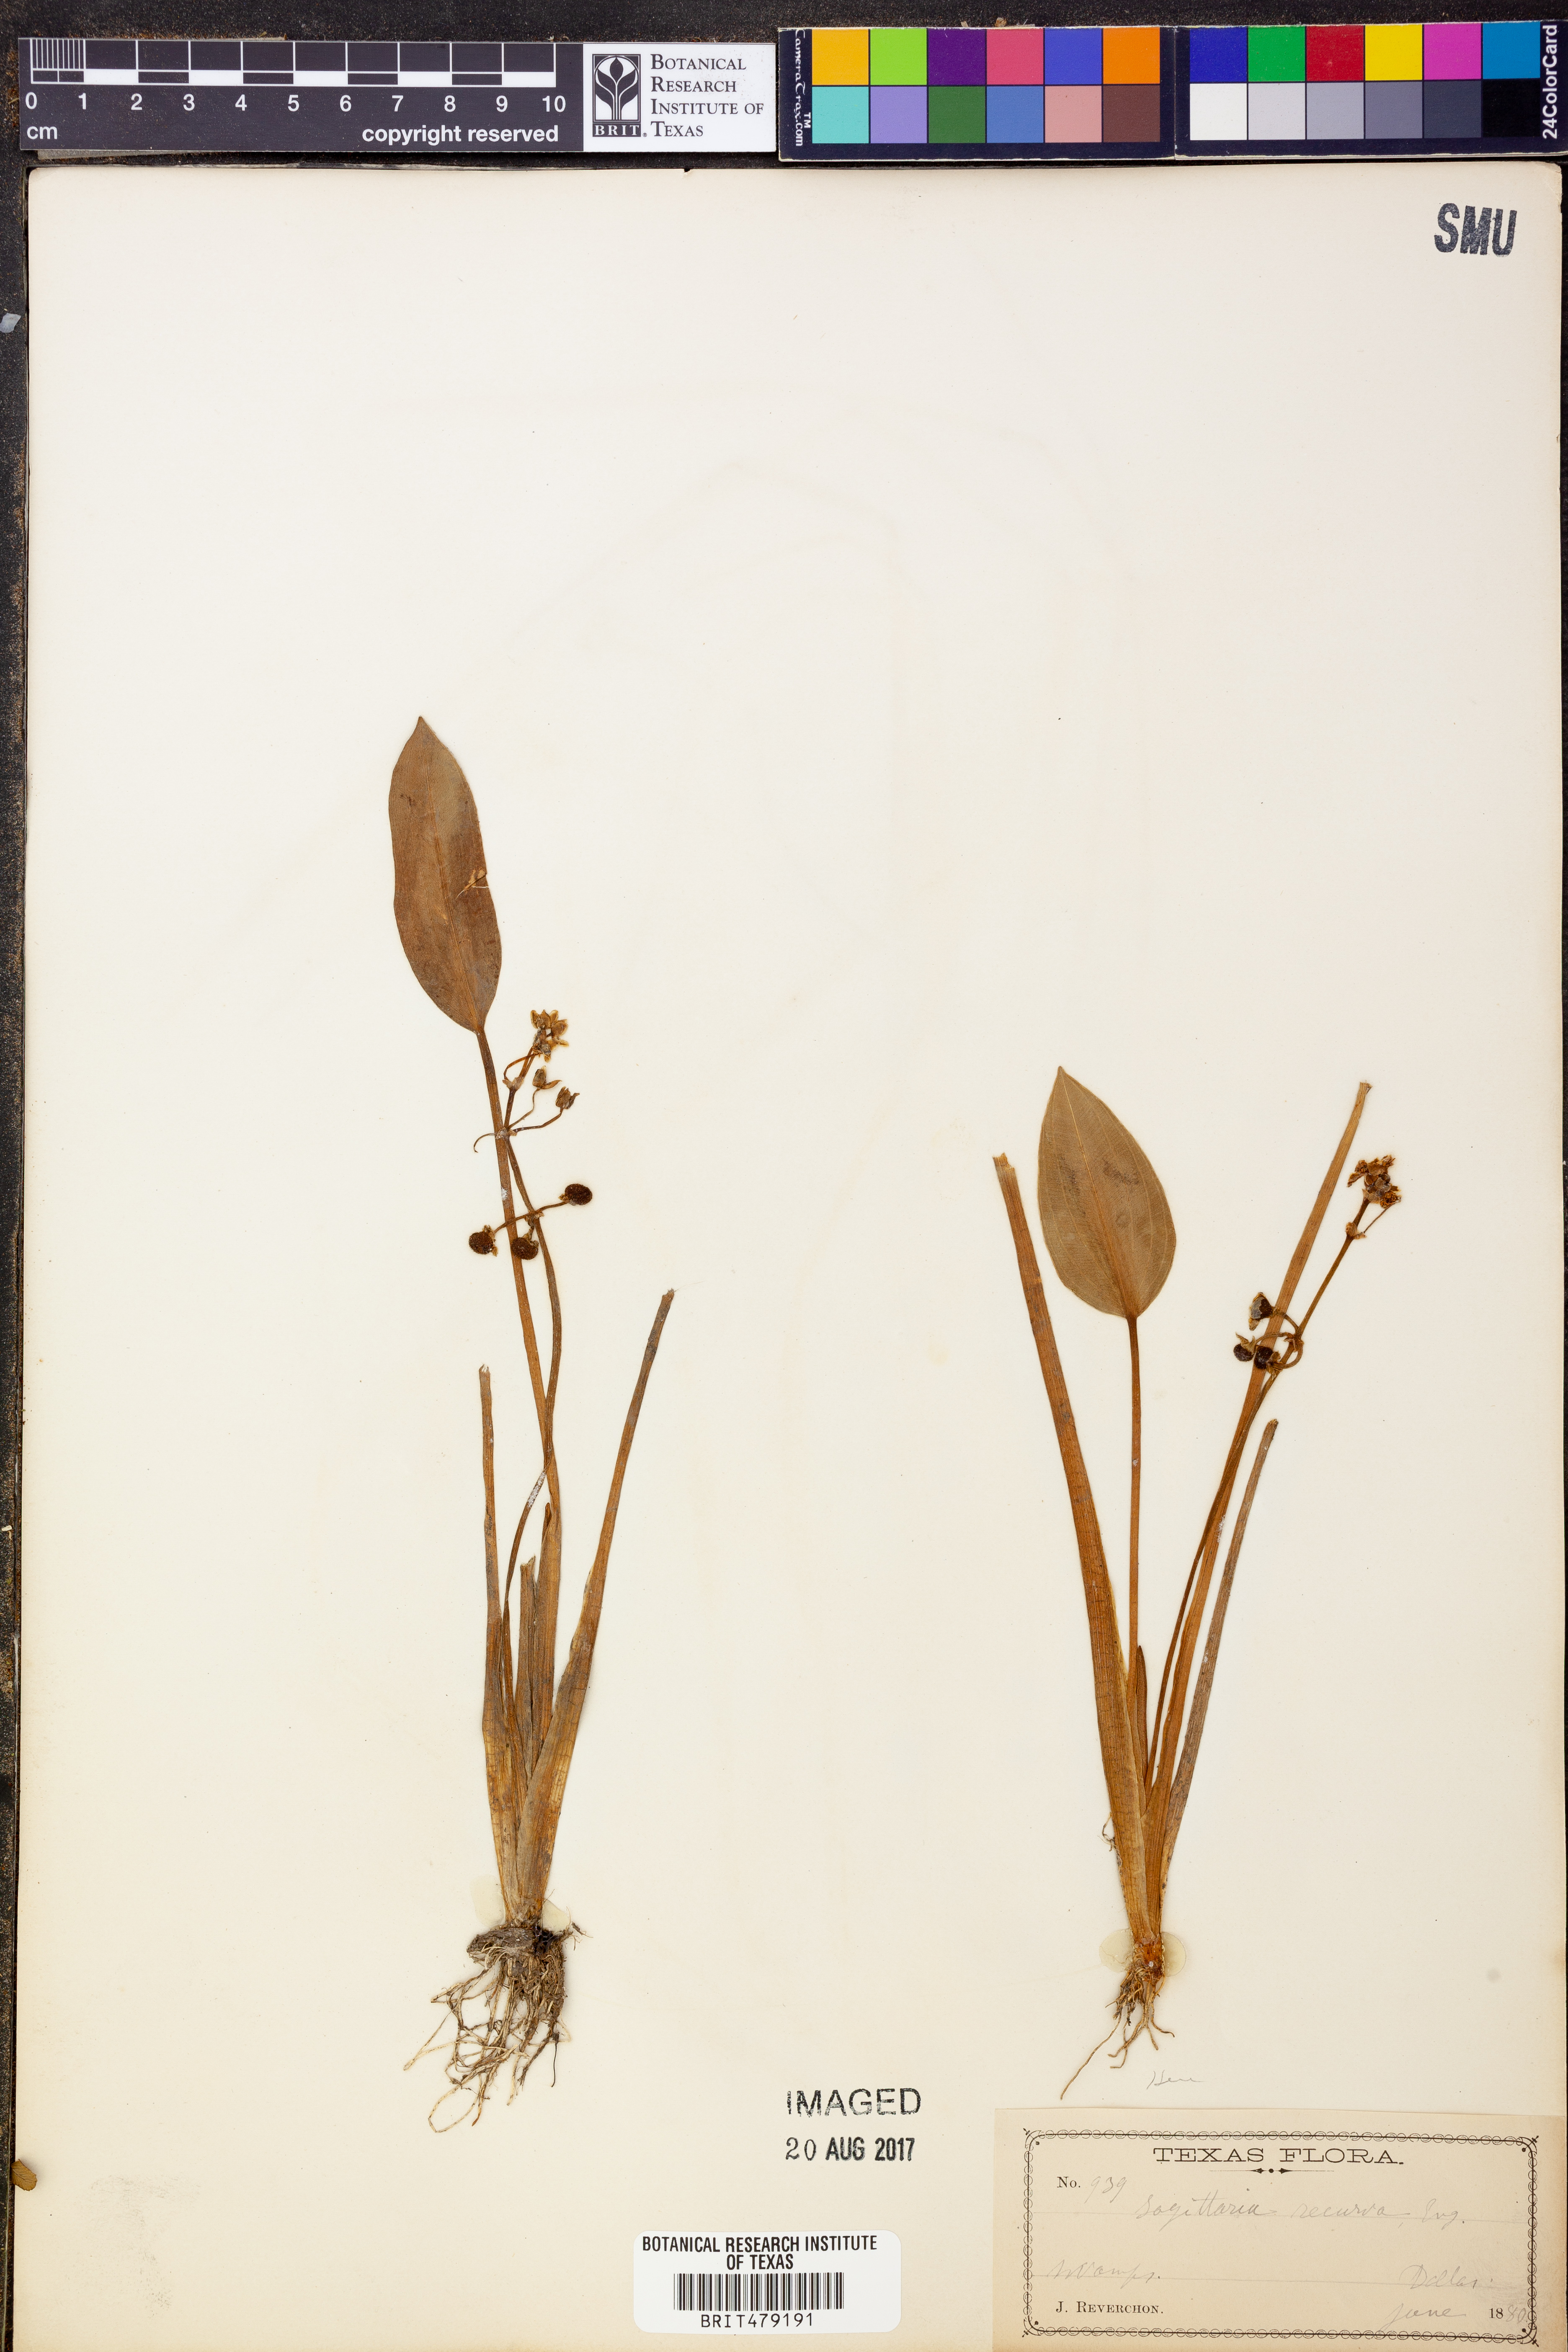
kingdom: Plantae
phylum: Tracheophyta
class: Liliopsida
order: Alismatales
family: Alismataceae
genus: Sagittaria
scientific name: Sagittaria platyphylla
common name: Broad-leaf arrowhead
